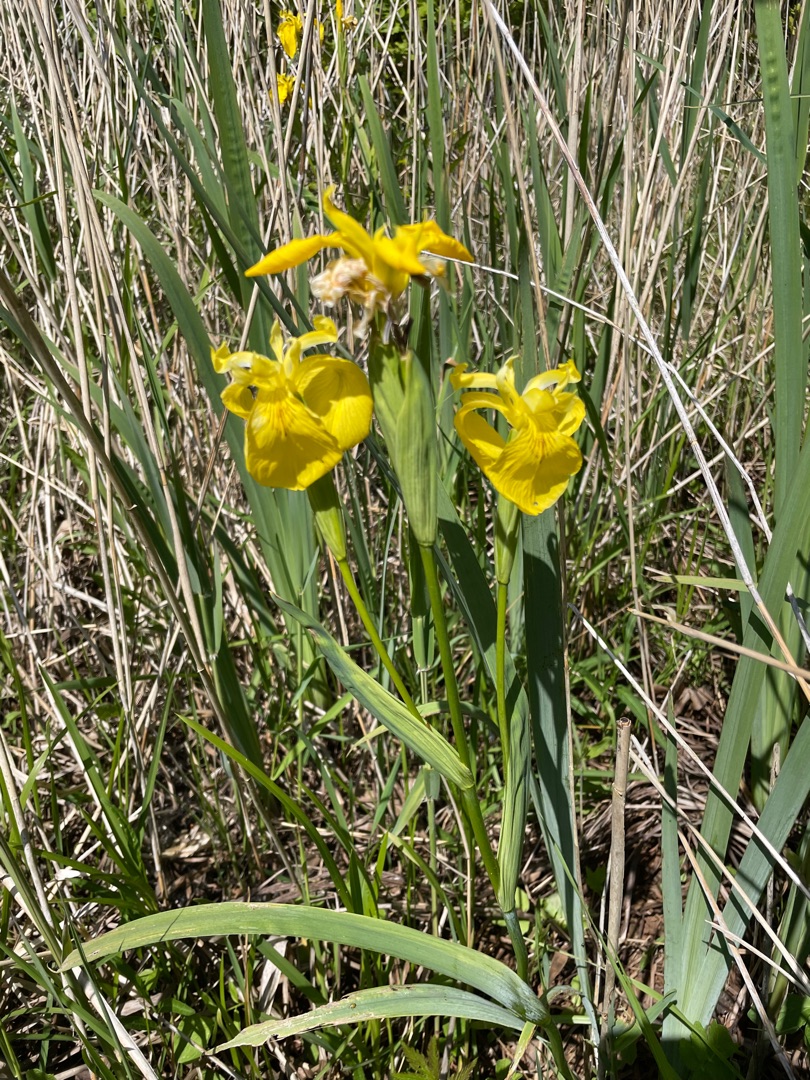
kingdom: Plantae
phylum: Tracheophyta
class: Liliopsida
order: Asparagales
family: Iridaceae
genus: Iris
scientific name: Iris pseudacorus
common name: Gul iris
